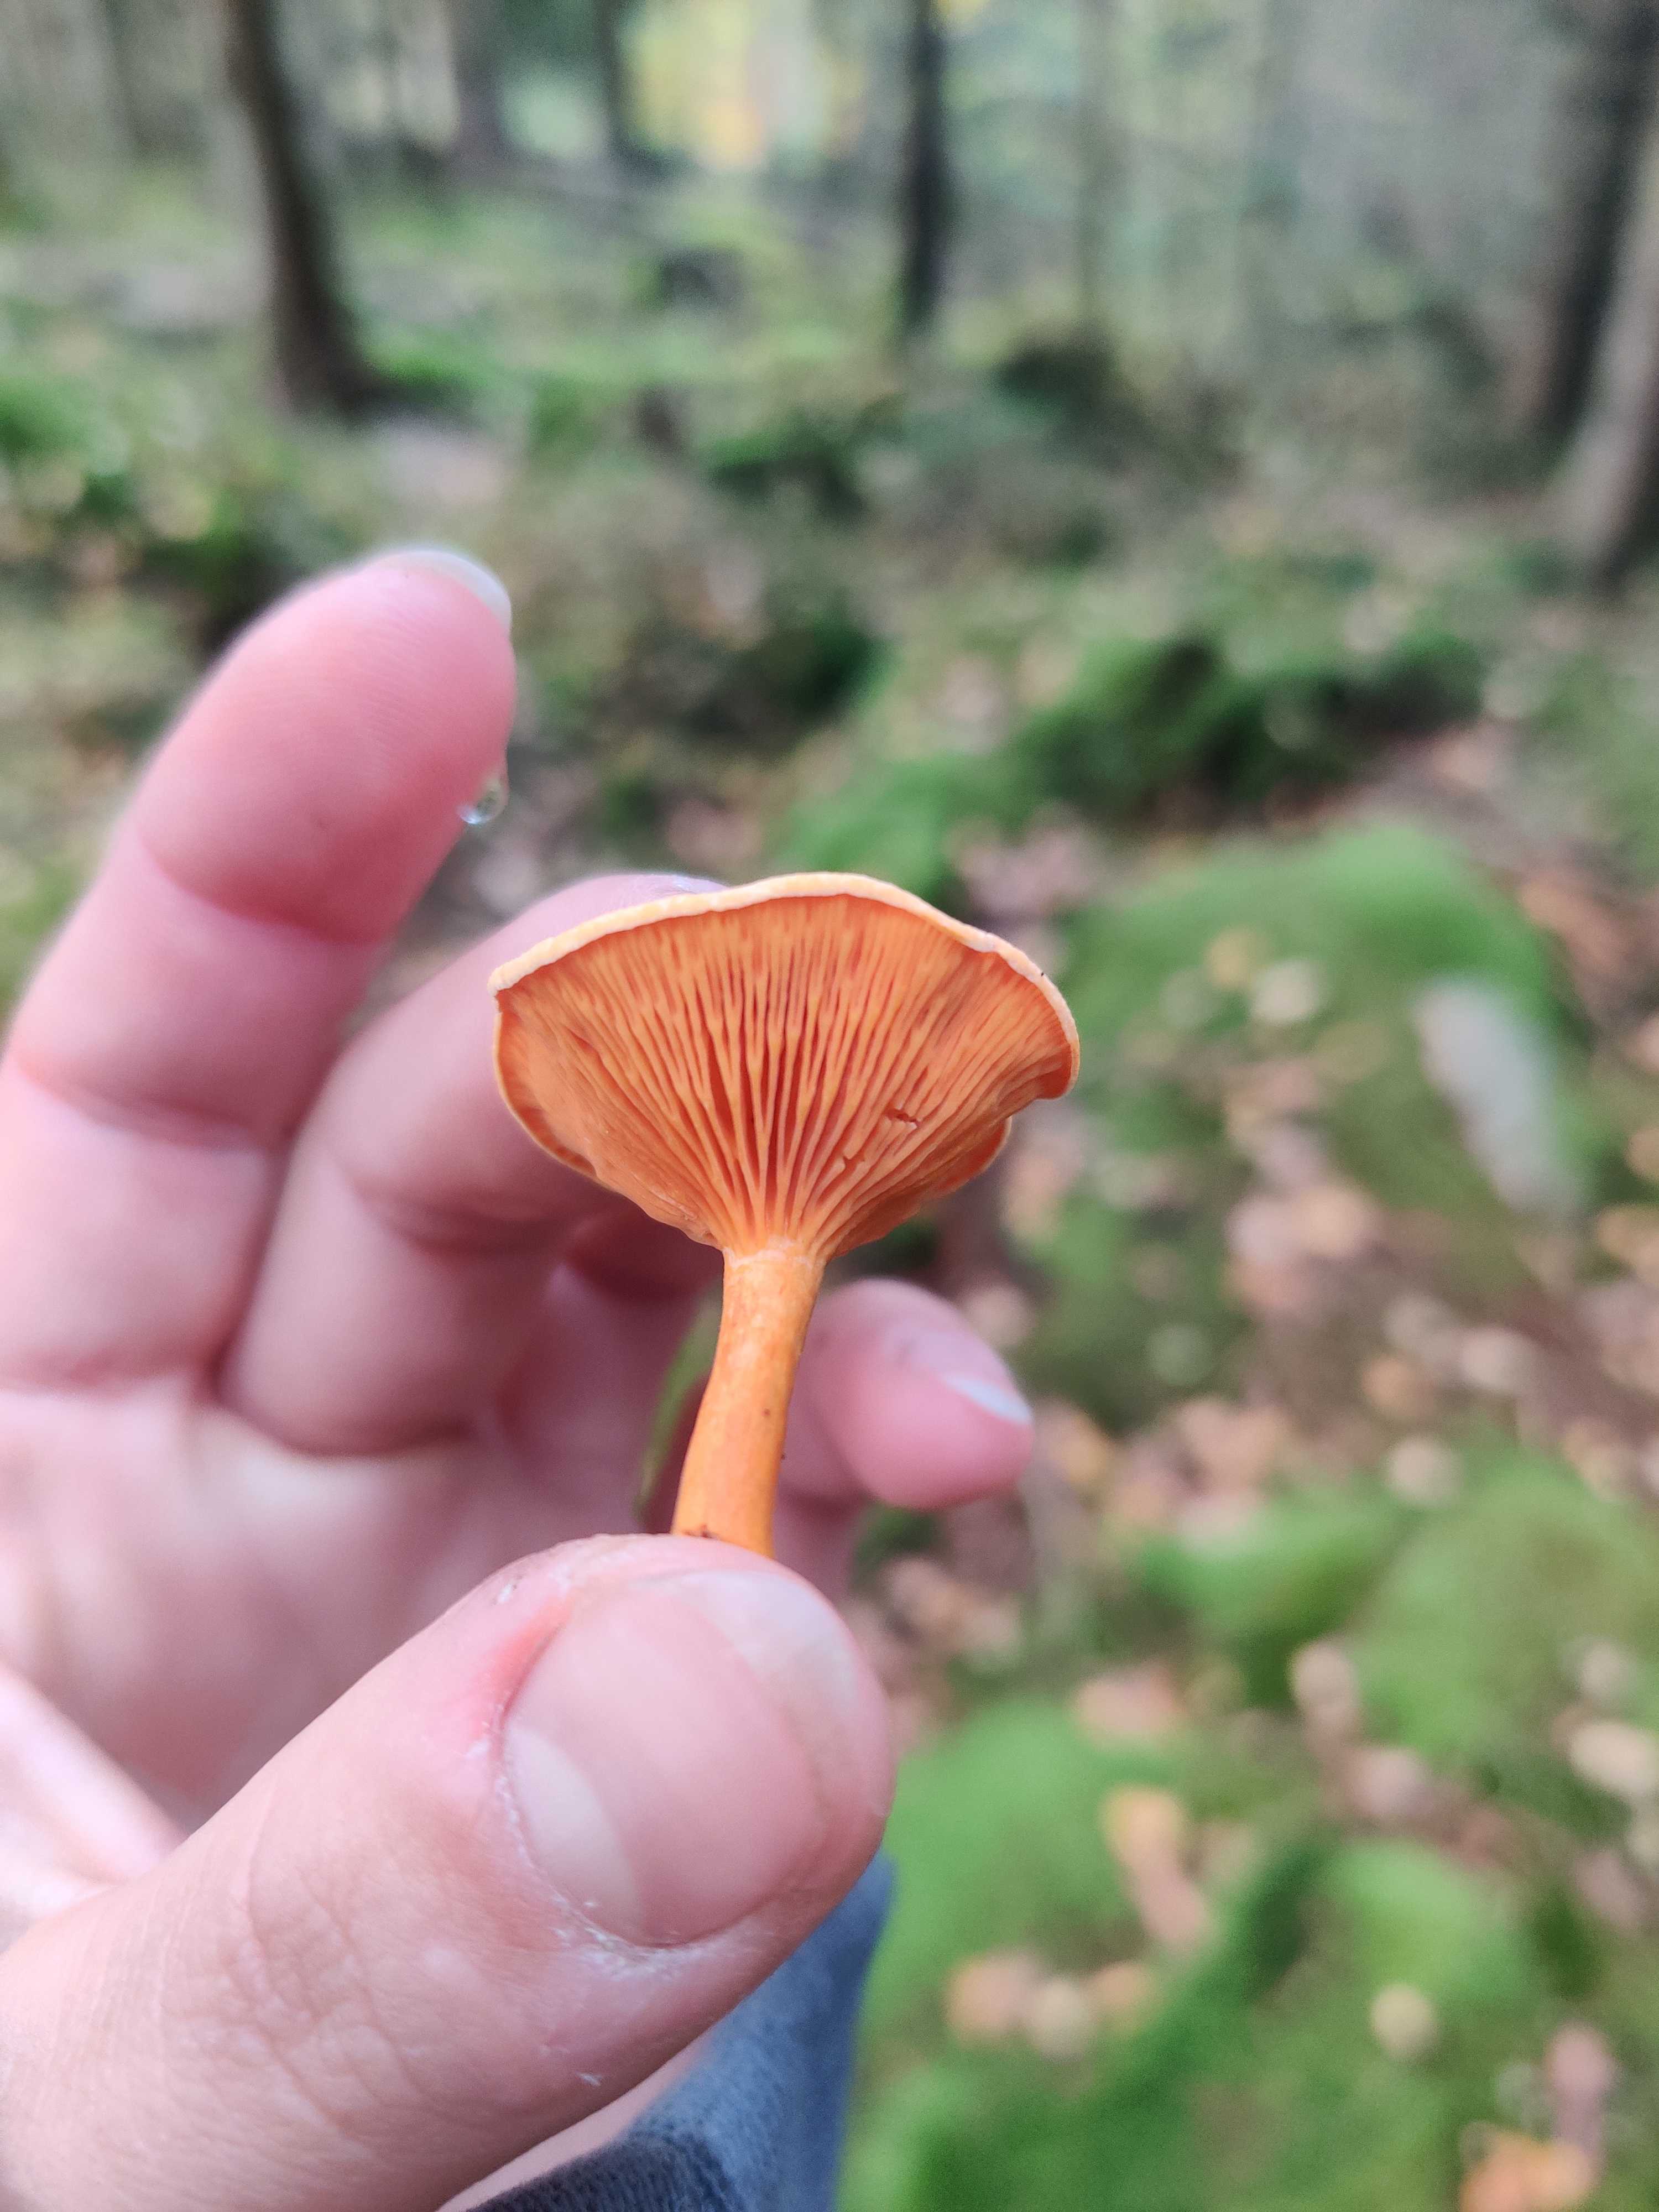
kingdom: Fungi
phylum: Basidiomycota
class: Agaricomycetes
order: Boletales
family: Hygrophoropsidaceae
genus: Hygrophoropsis
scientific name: Hygrophoropsis aurantiaca
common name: almindelig orangekantarel
